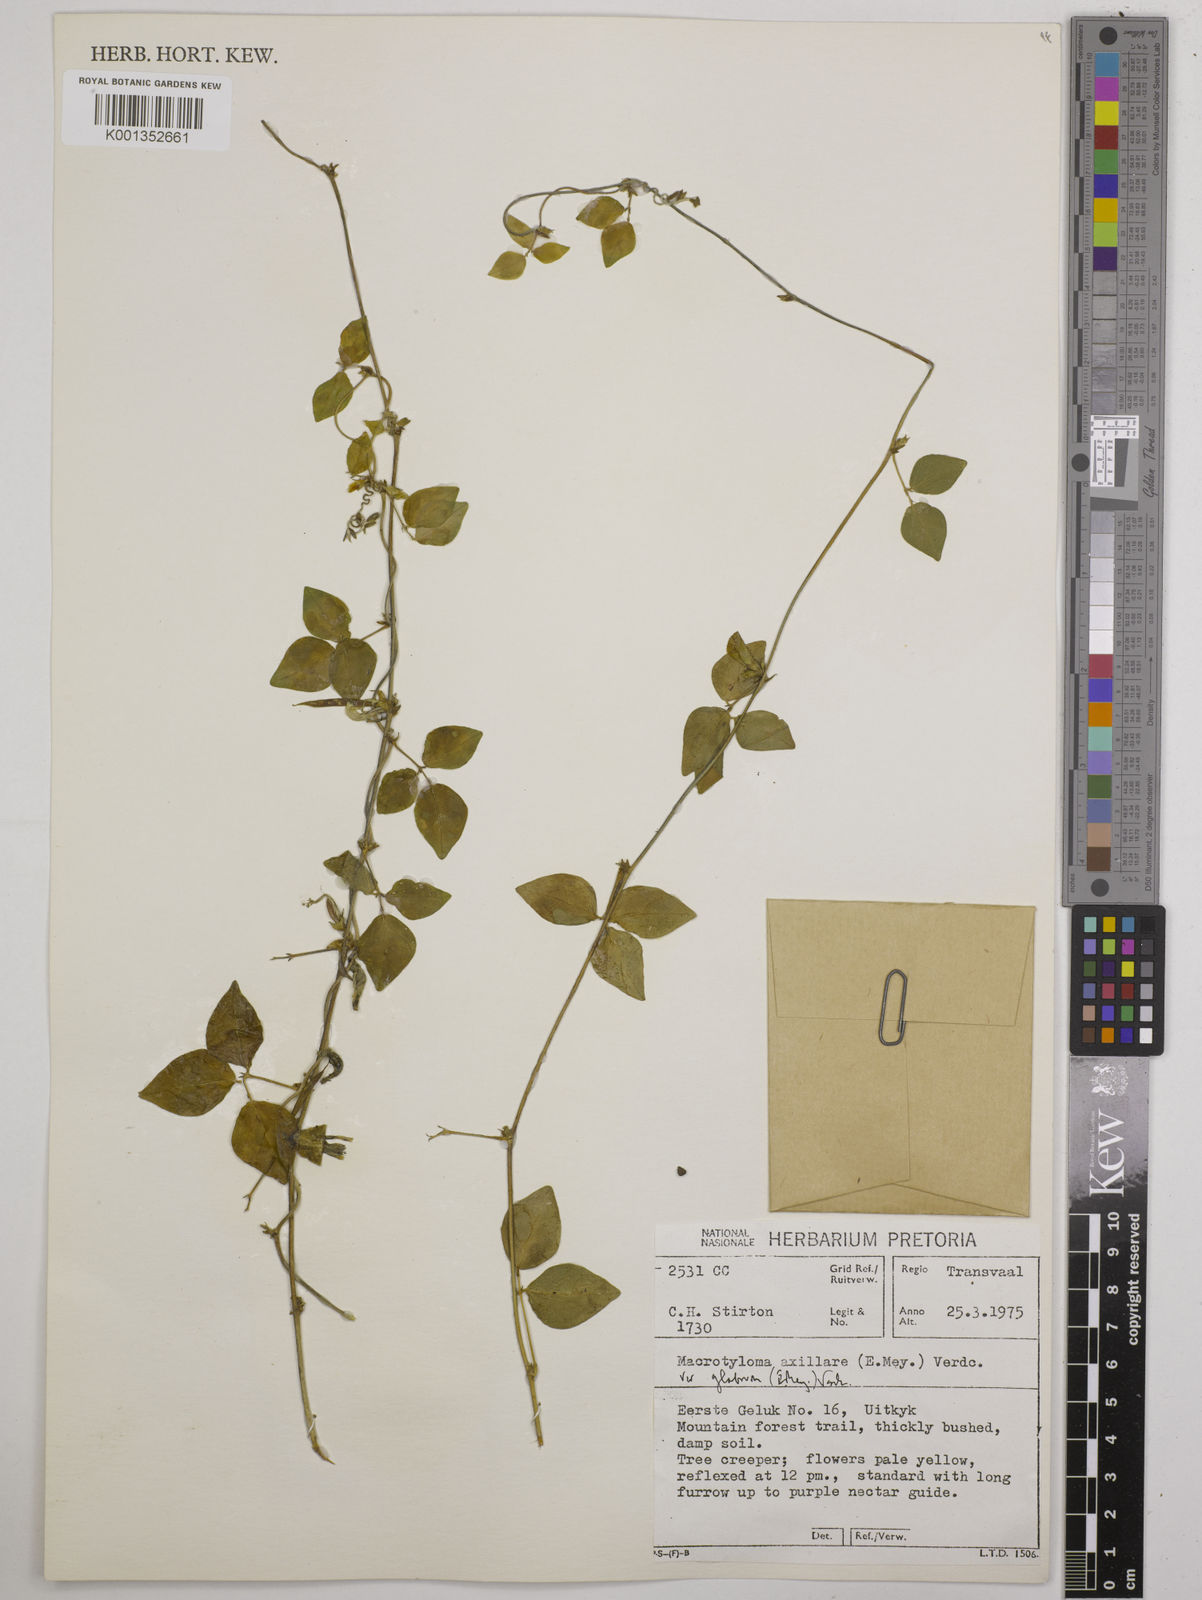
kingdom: Plantae
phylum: Tracheophyta
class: Magnoliopsida
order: Fabales
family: Fabaceae
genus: Macrotyloma
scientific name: Macrotyloma axillare
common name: Perennial horsegram
